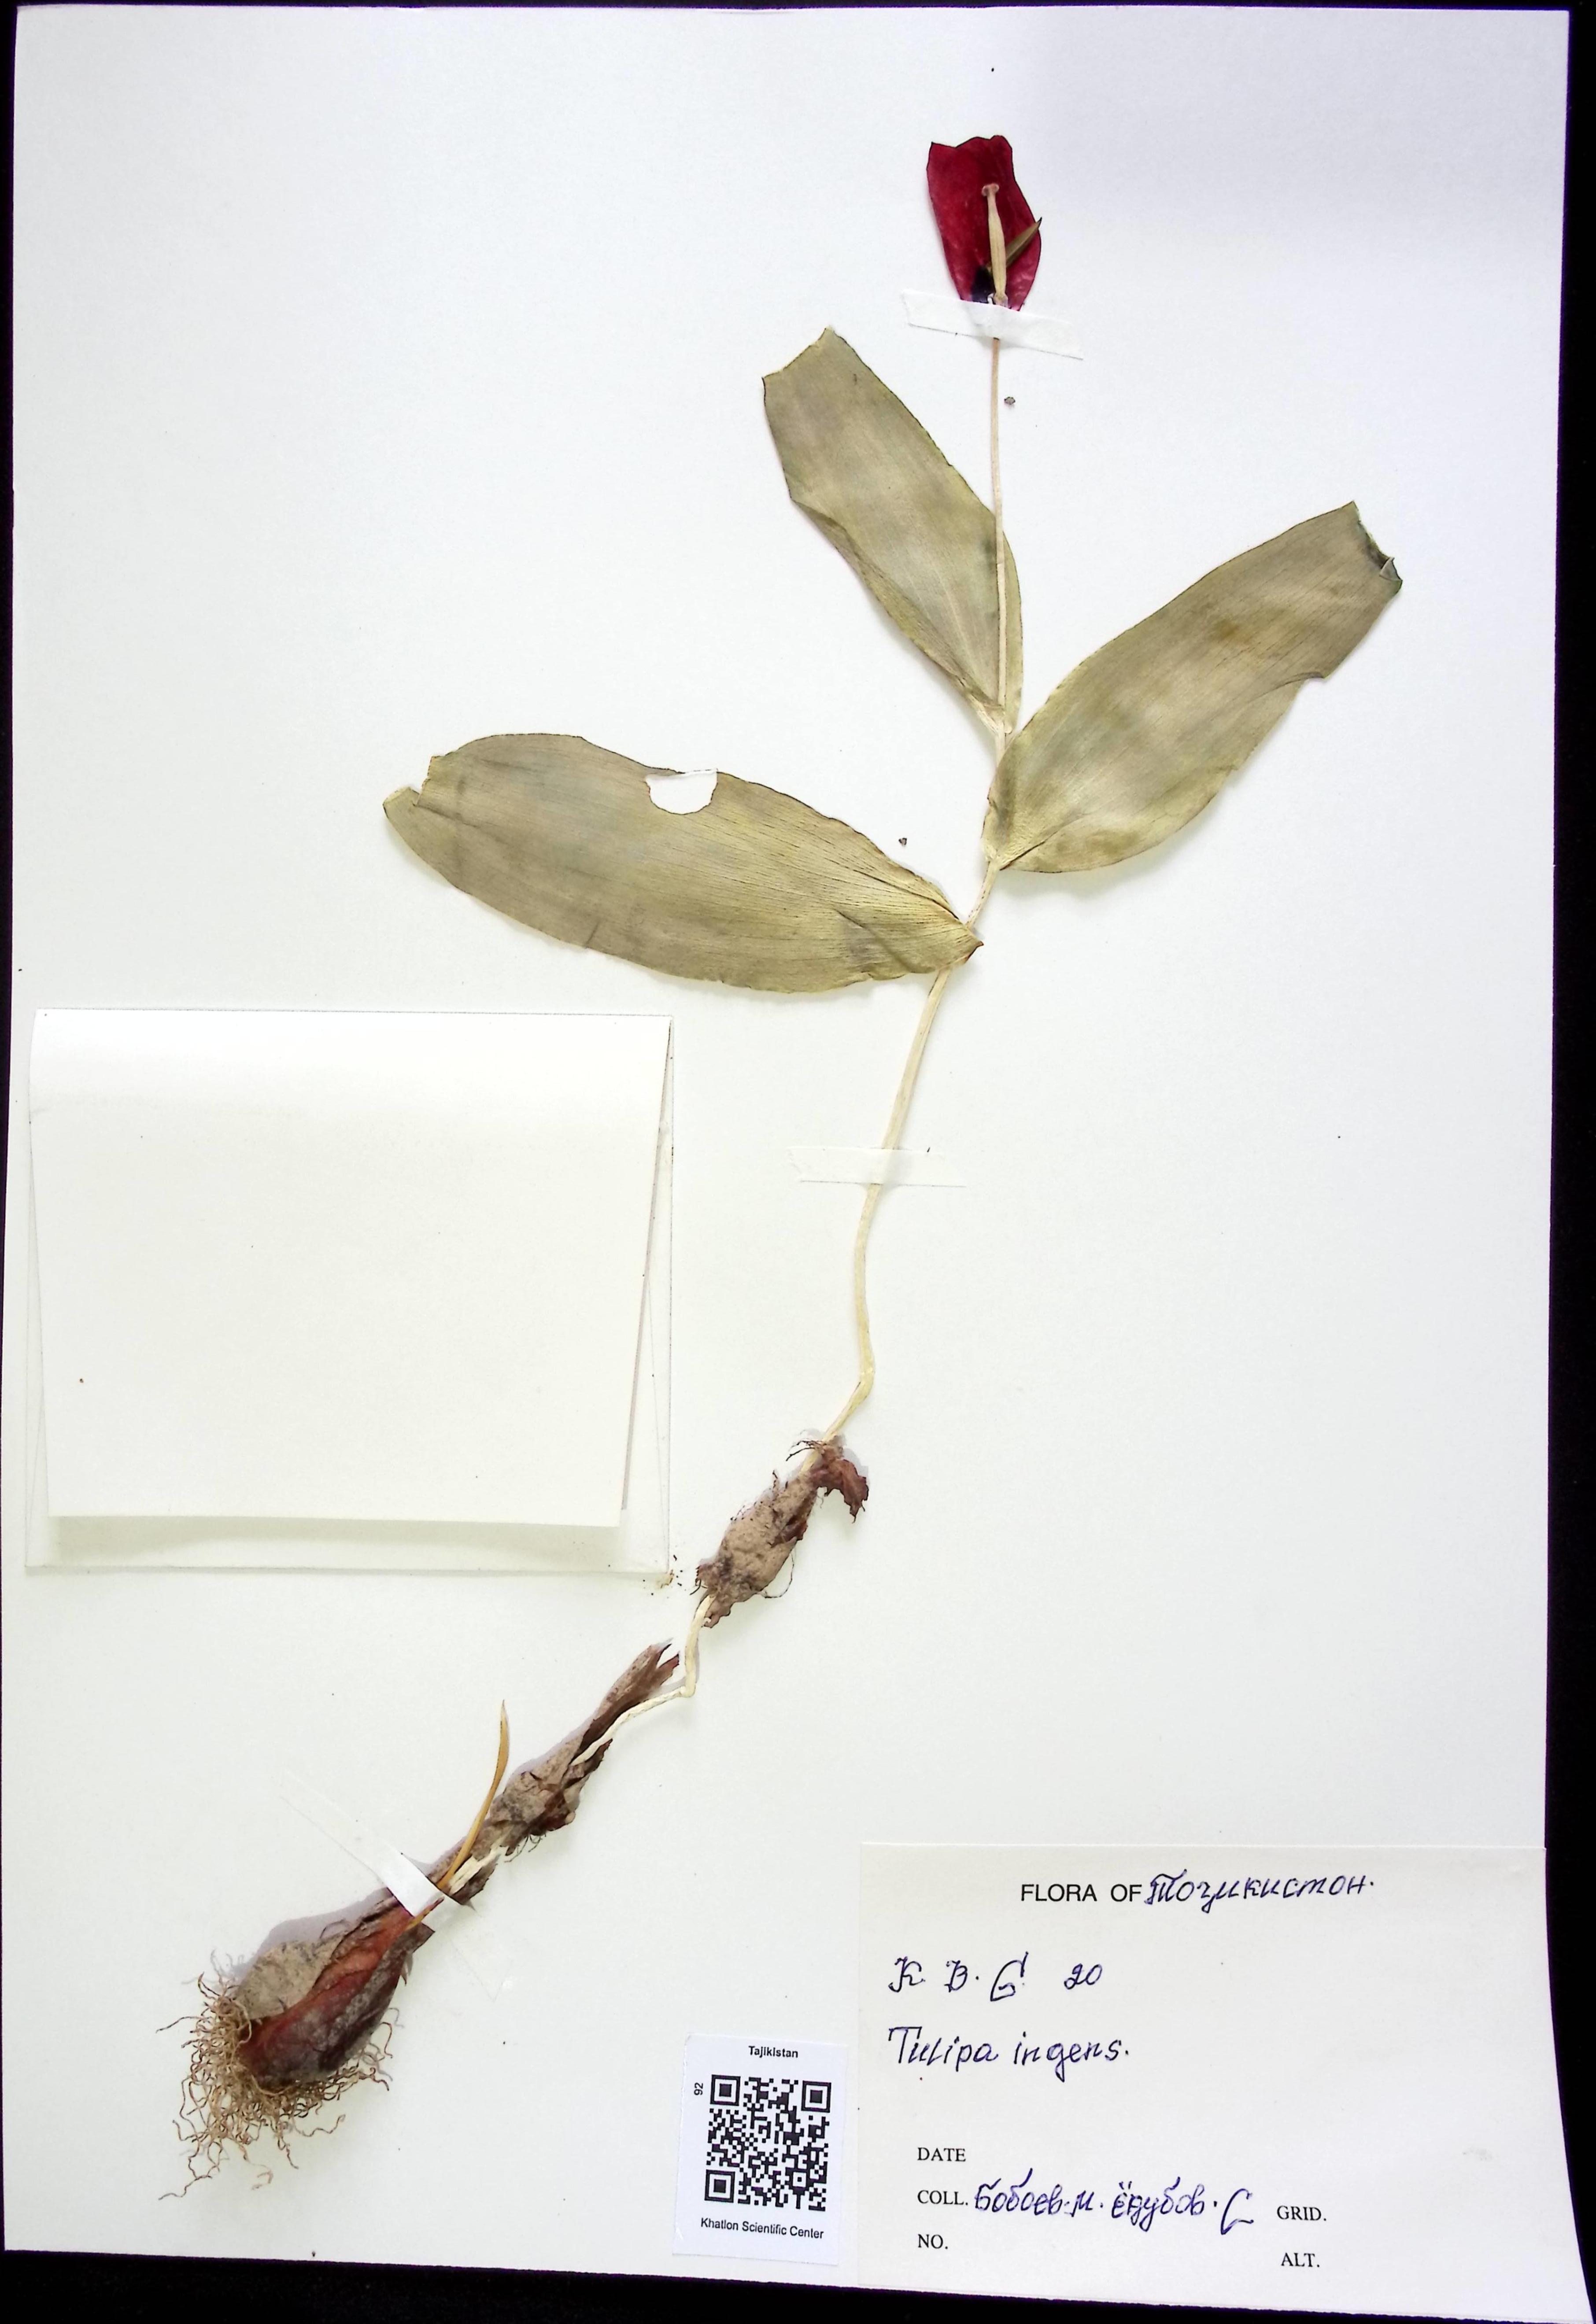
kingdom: Plantae
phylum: Tracheophyta
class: Liliopsida
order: Liliales
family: Liliaceae
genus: Tulipa
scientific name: Tulipa ingens
